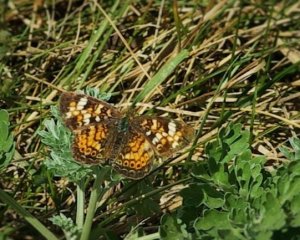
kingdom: Animalia
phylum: Arthropoda
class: Insecta
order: Lepidoptera
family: Nymphalidae
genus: Phyciodes
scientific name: Phyciodes tharos
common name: Pearl Crescent
